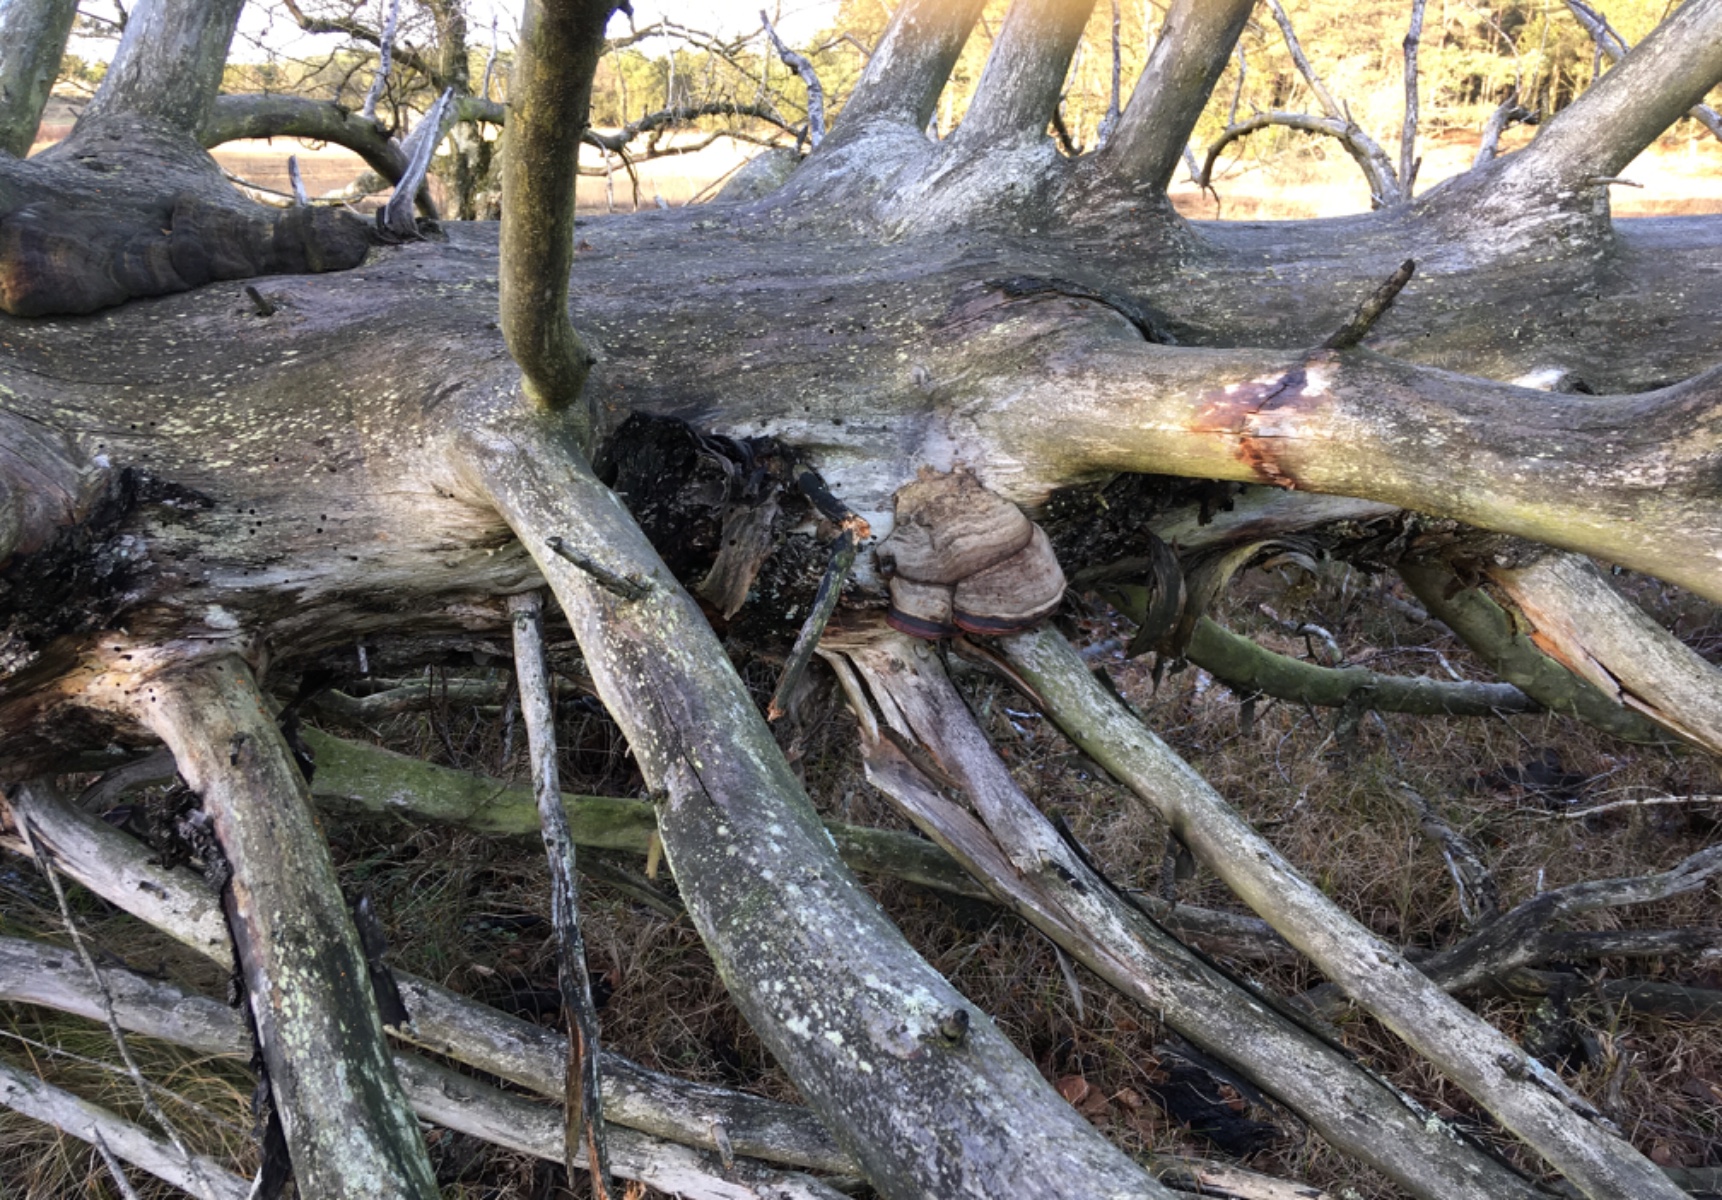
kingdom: Fungi
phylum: Basidiomycota
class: Agaricomycetes
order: Polyporales
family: Fomitopsidaceae
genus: Fomitopsis
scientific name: Fomitopsis pinicola
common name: randbæltet hovporesvamp
